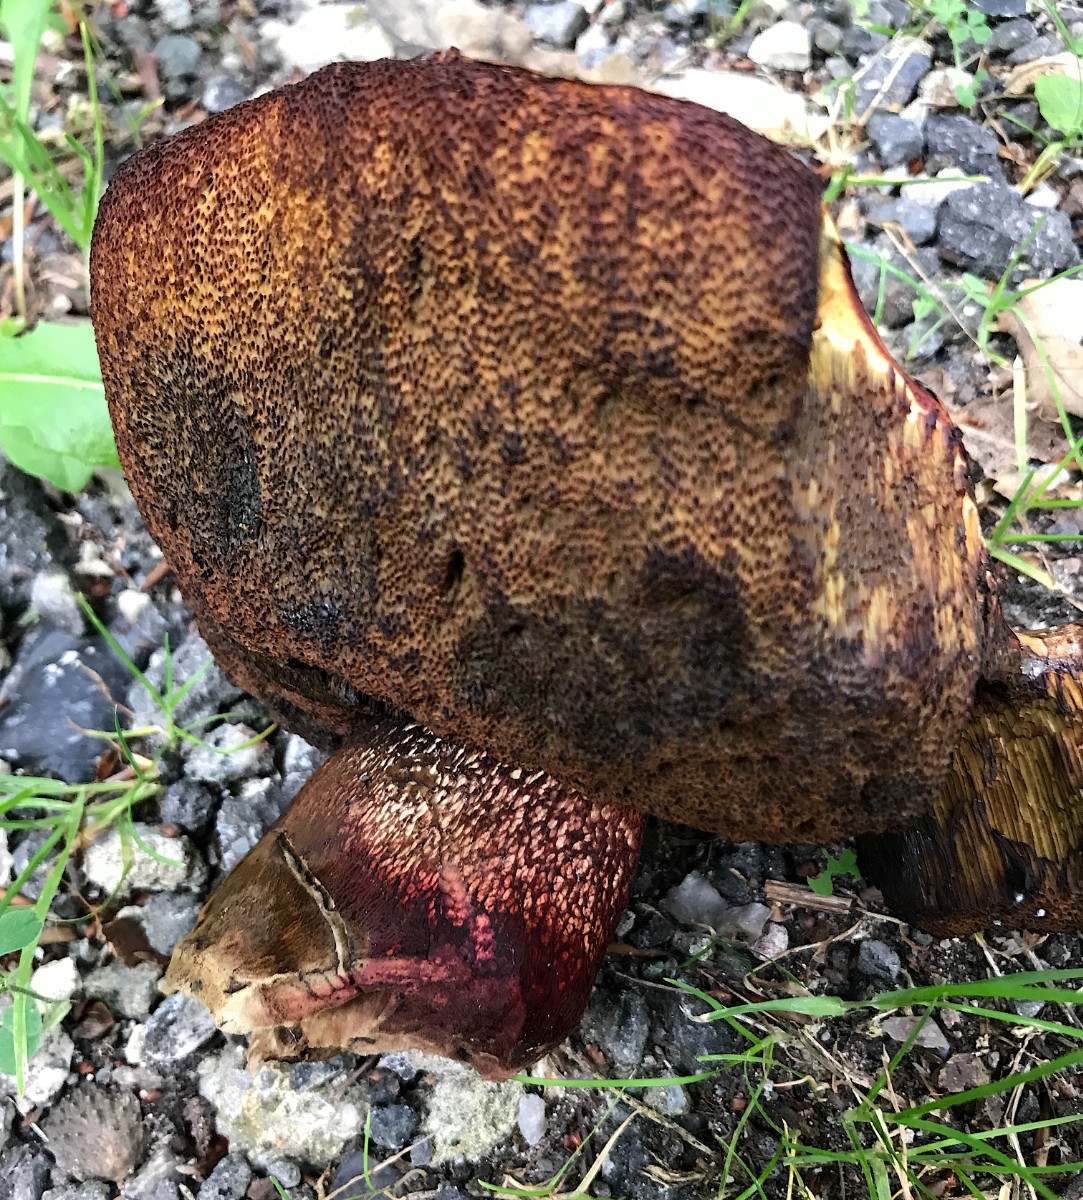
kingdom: Fungi
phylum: Basidiomycota
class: Agaricomycetes
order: Boletales
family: Boletaceae
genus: Suillellus
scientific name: Suillellus luridus
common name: netstokket indigorørhat
